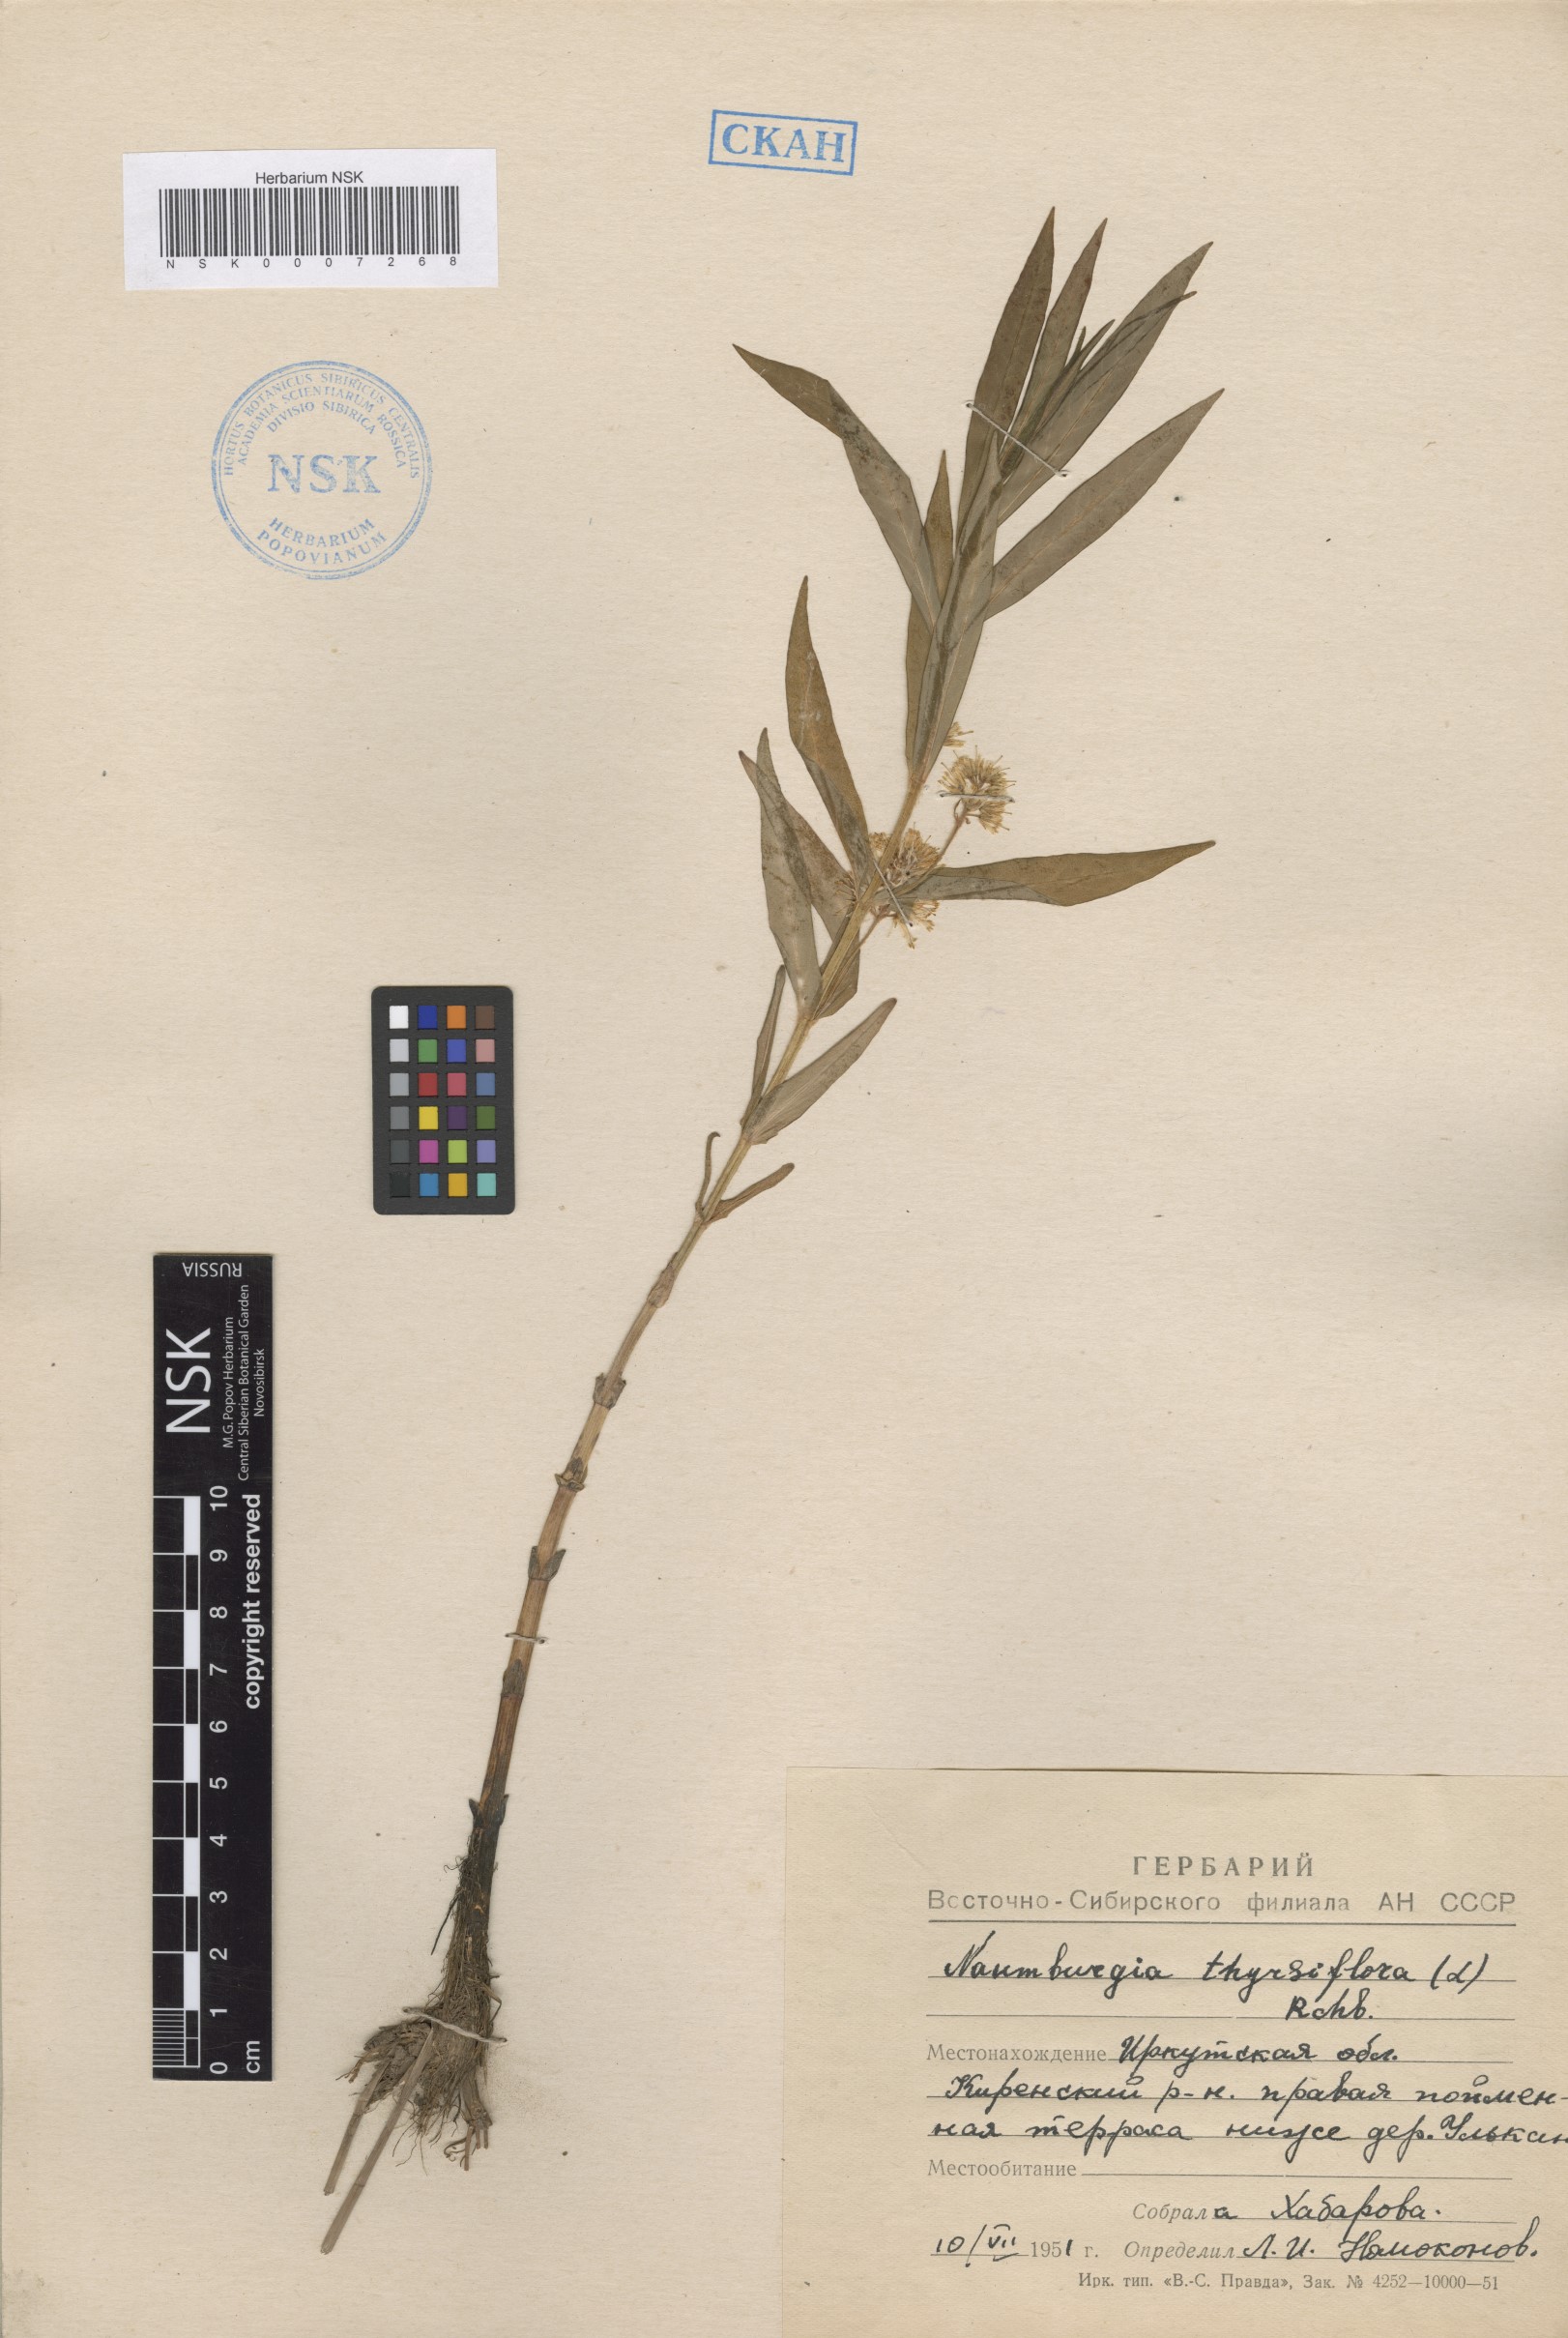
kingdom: Plantae
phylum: Tracheophyta
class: Magnoliopsida
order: Ericales
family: Primulaceae
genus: Lysimachia
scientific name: Lysimachia thyrsiflora
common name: Tufted loosestrife
